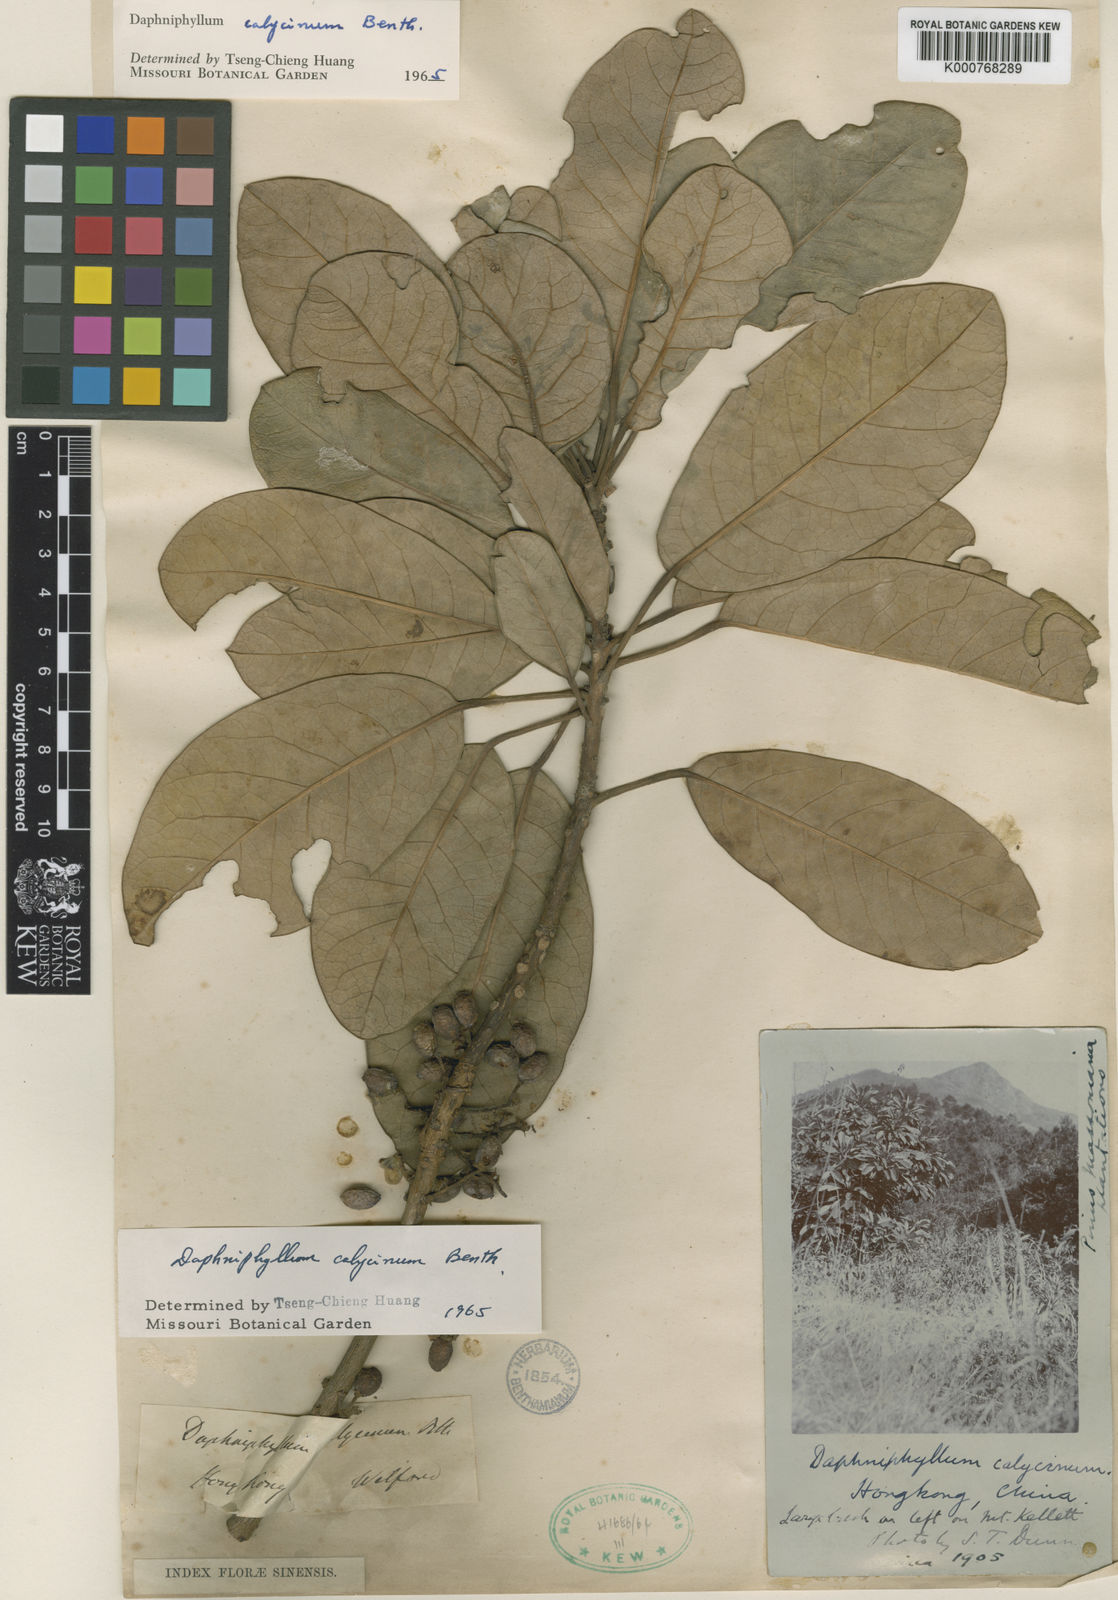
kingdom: Plantae
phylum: Tracheophyta
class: Magnoliopsida
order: Saxifragales
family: Daphniphyllaceae
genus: Daphniphyllum
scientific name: Daphniphyllum calycinum
